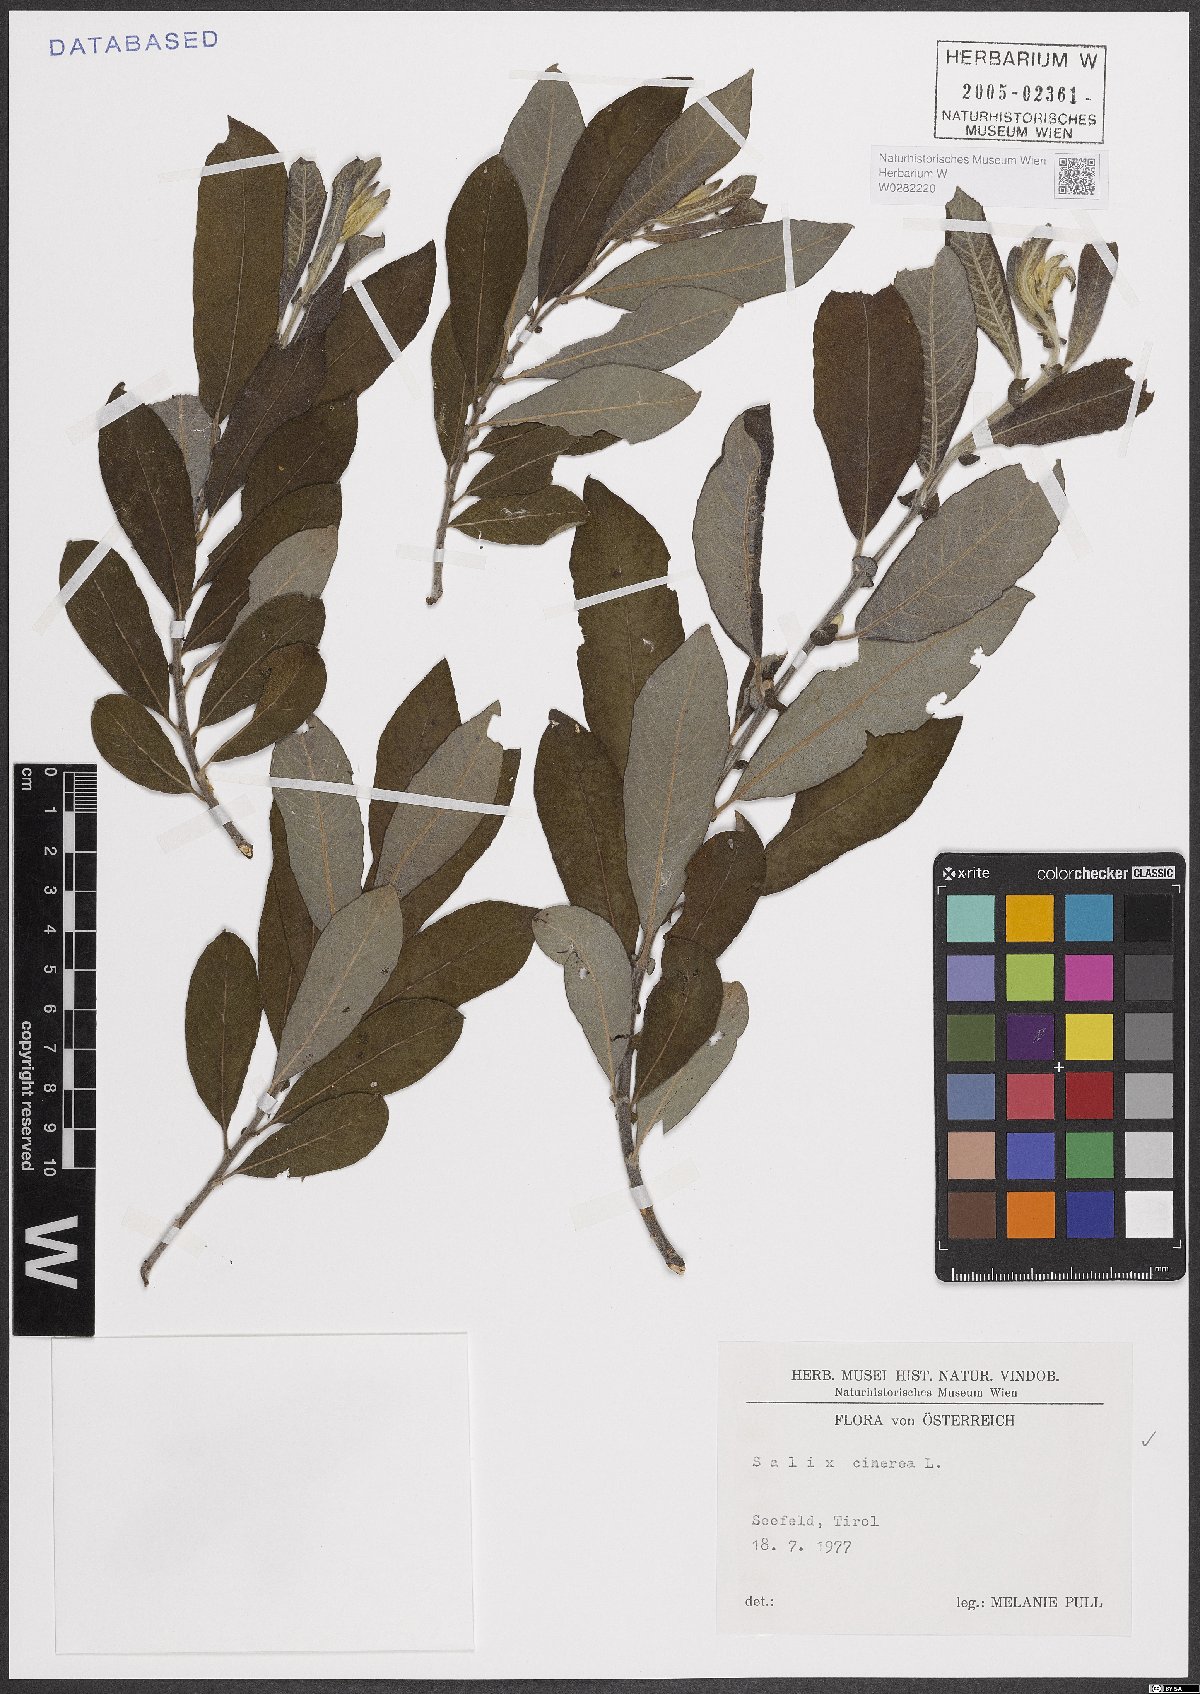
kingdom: Plantae
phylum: Tracheophyta
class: Magnoliopsida
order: Malpighiales
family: Salicaceae
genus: Salix
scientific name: Salix cinerea
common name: Common sallow
